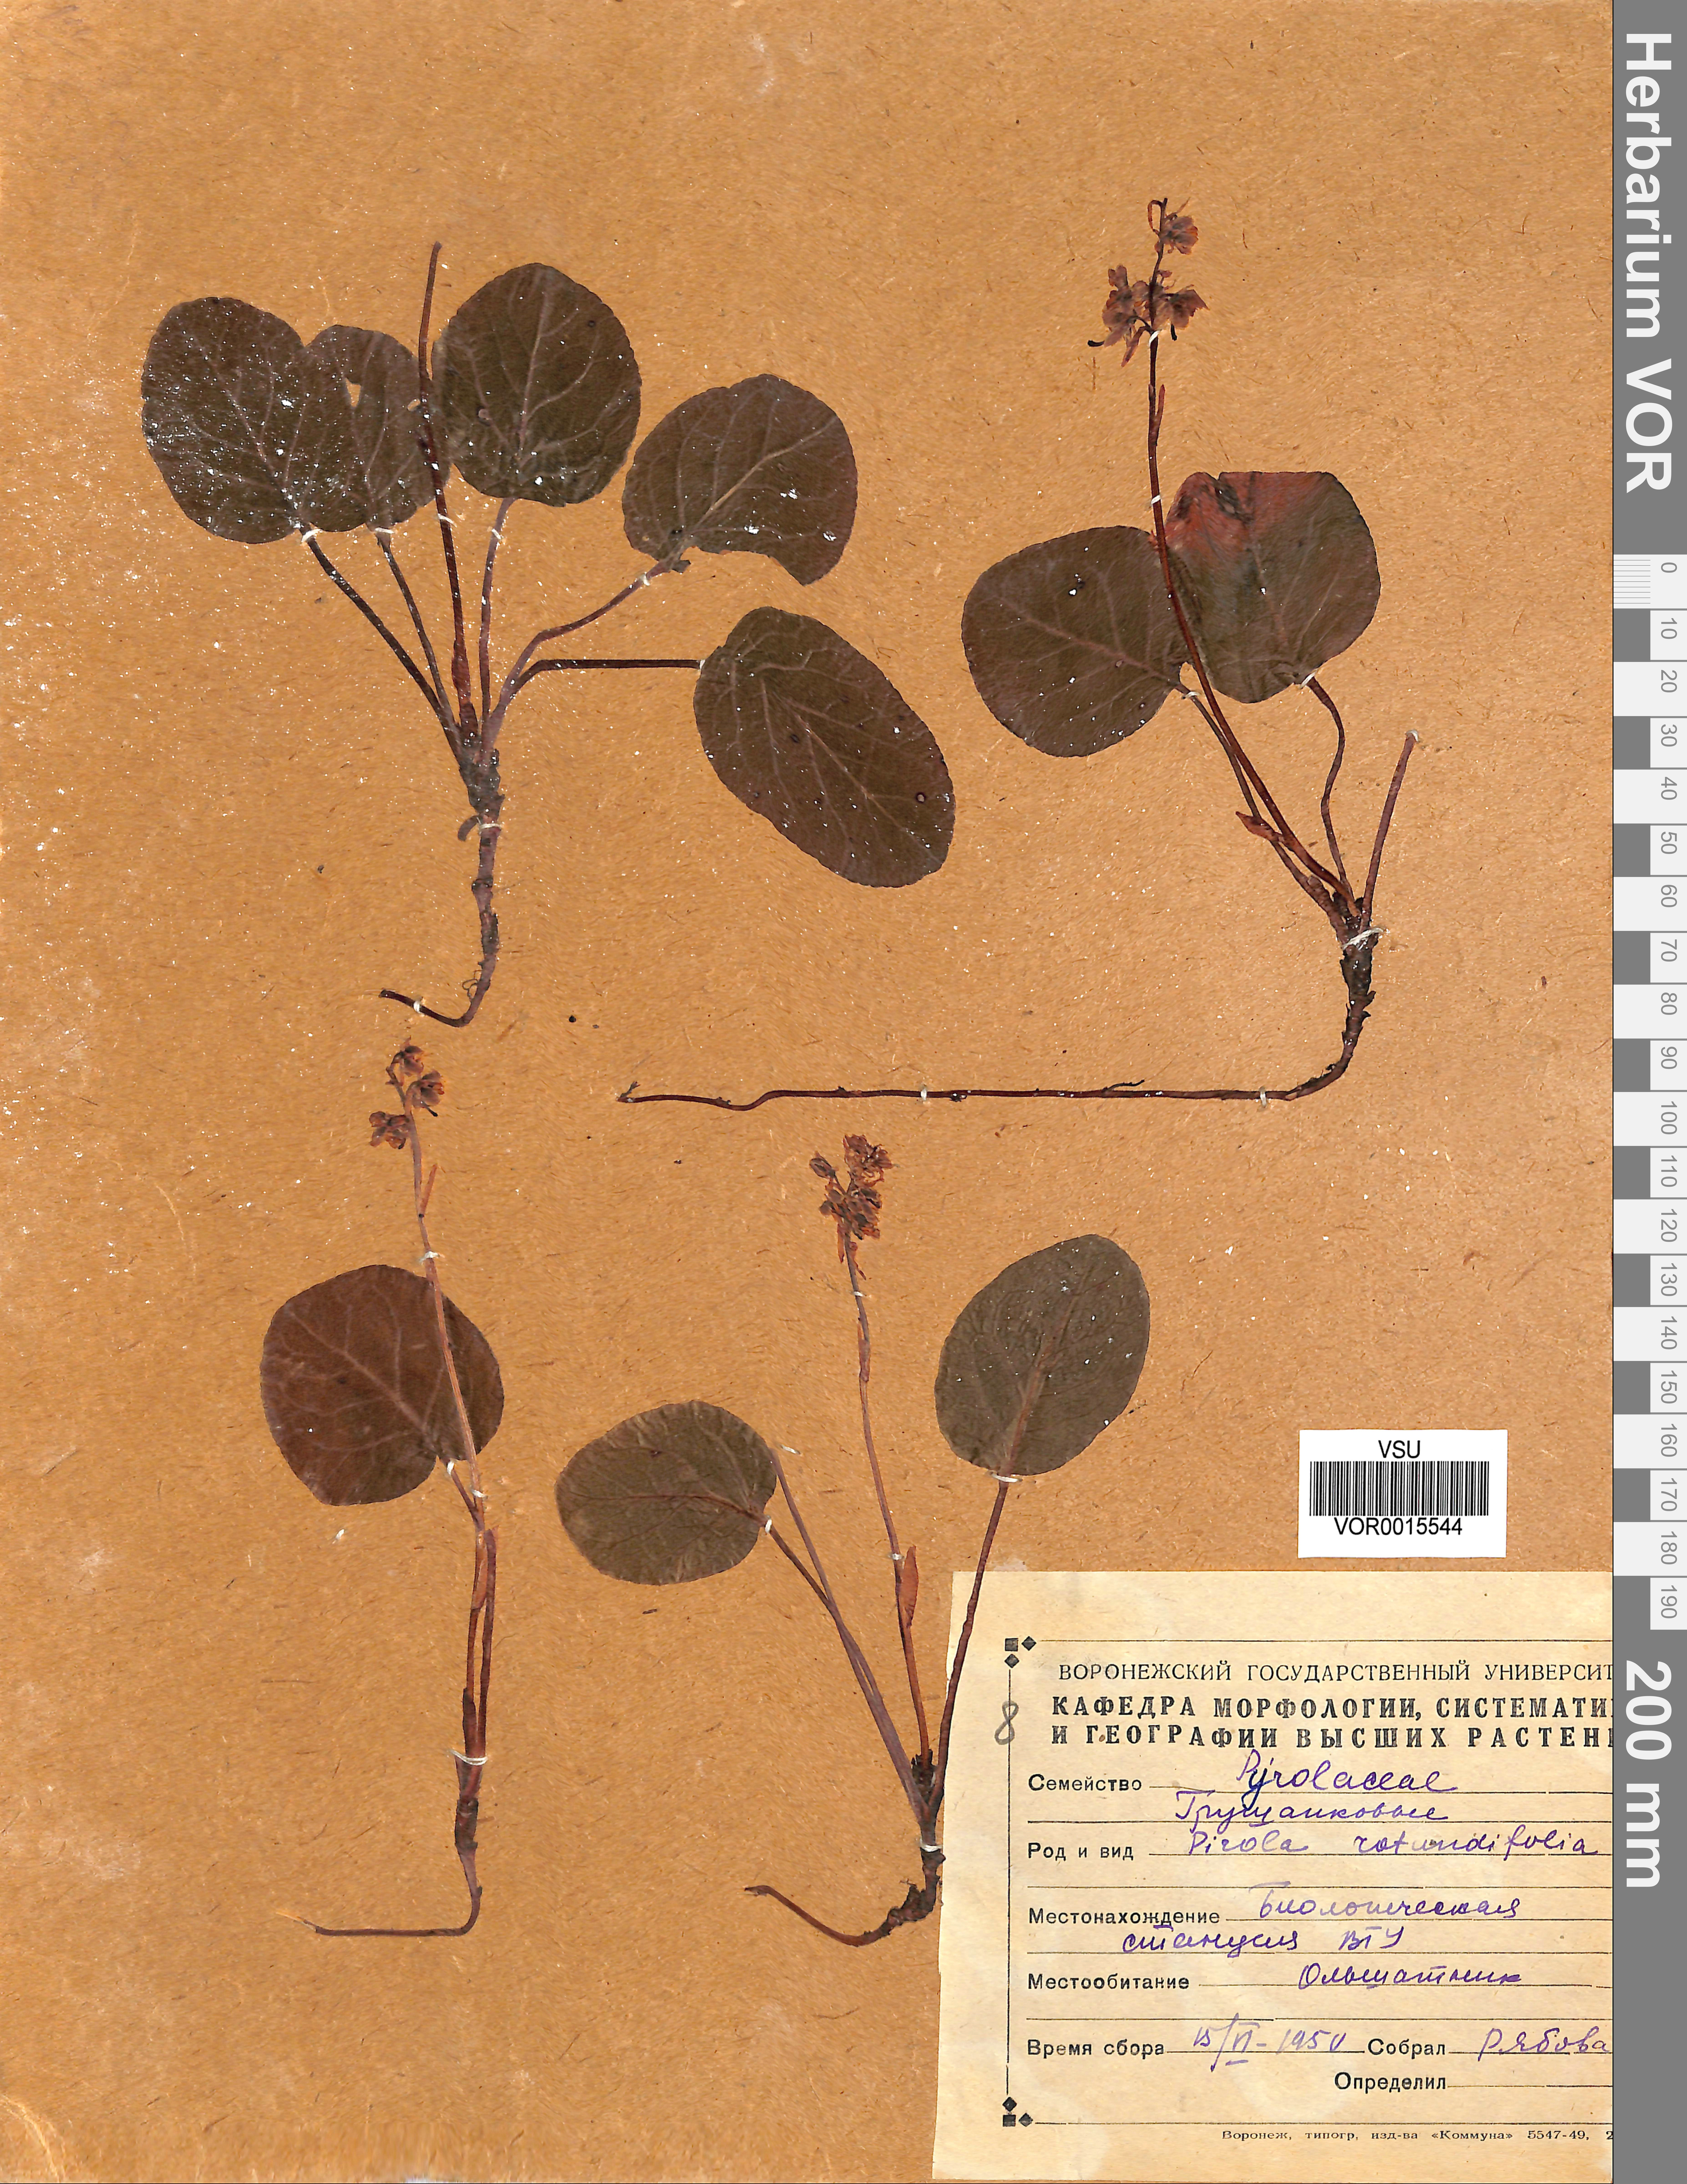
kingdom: Plantae
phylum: Tracheophyta
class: Magnoliopsida
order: Ericales
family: Ericaceae
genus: Pyrola
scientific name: Pyrola rotundifolia
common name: Round-leaved wintergreen
